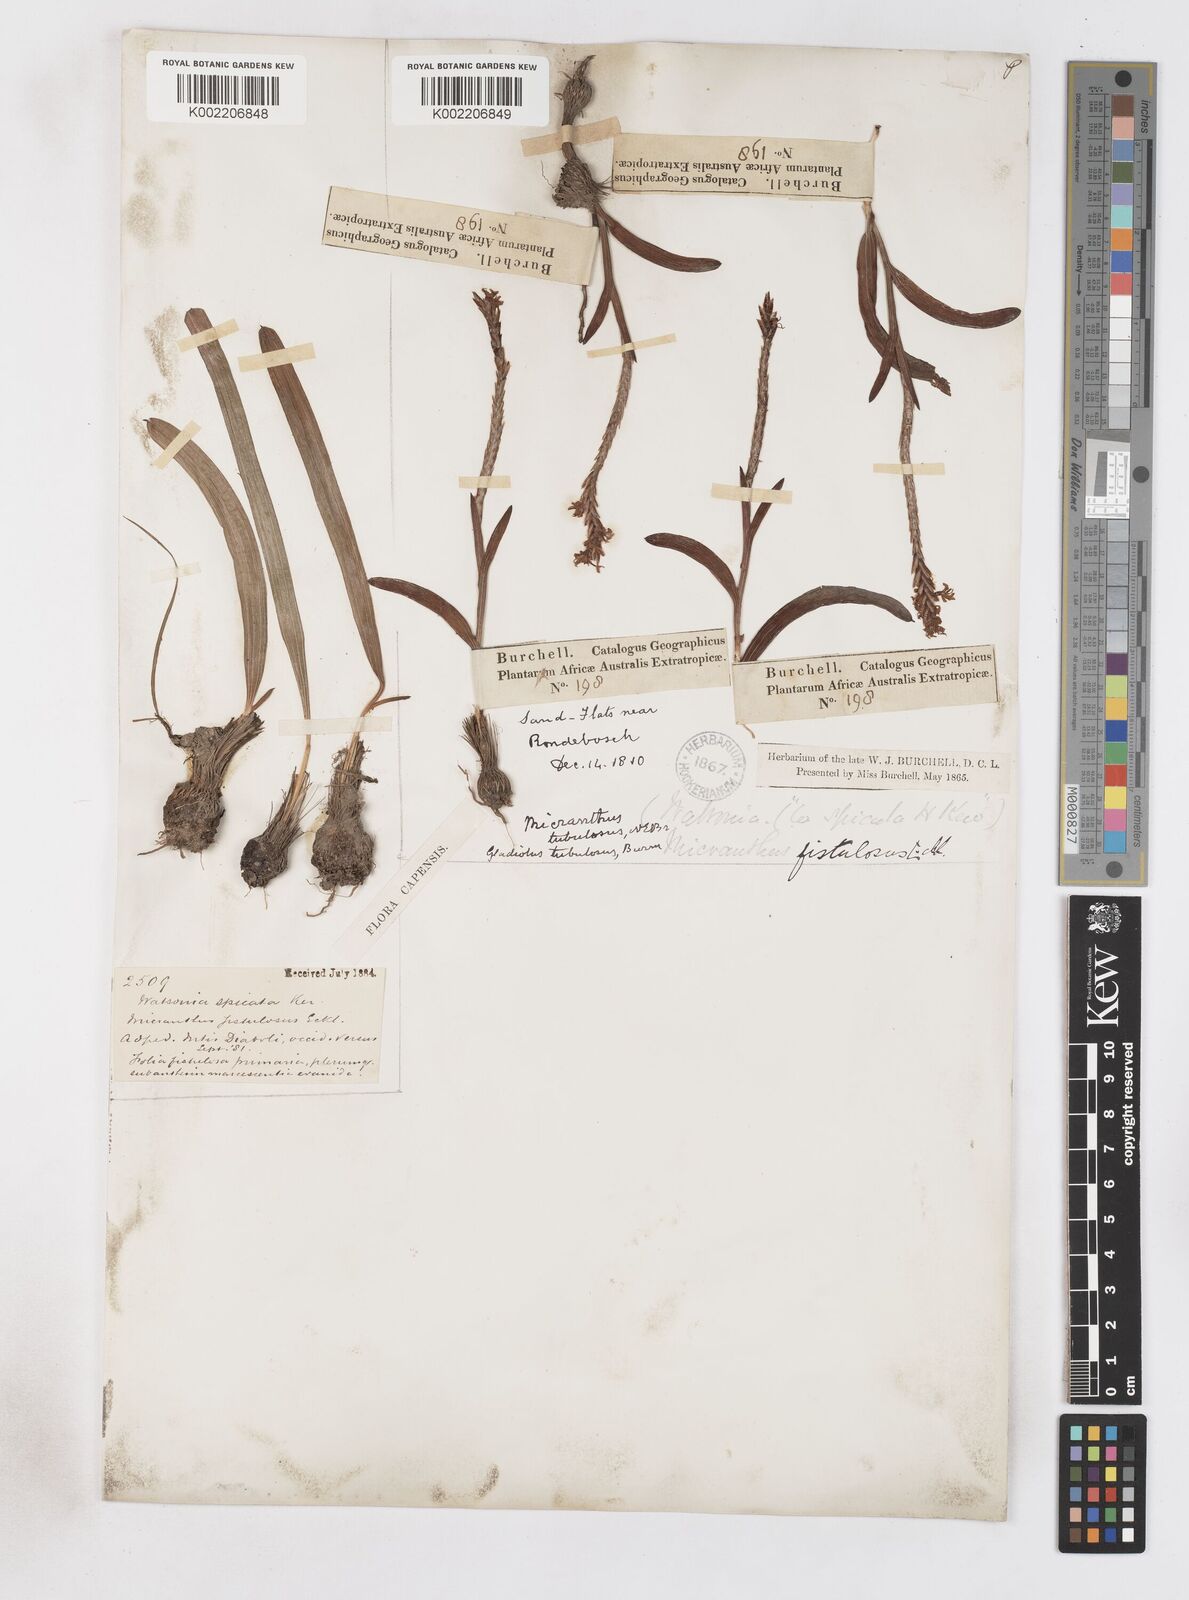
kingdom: Plantae
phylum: Tracheophyta
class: Liliopsida
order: Asparagales
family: Iridaceae
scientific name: Iridaceae
